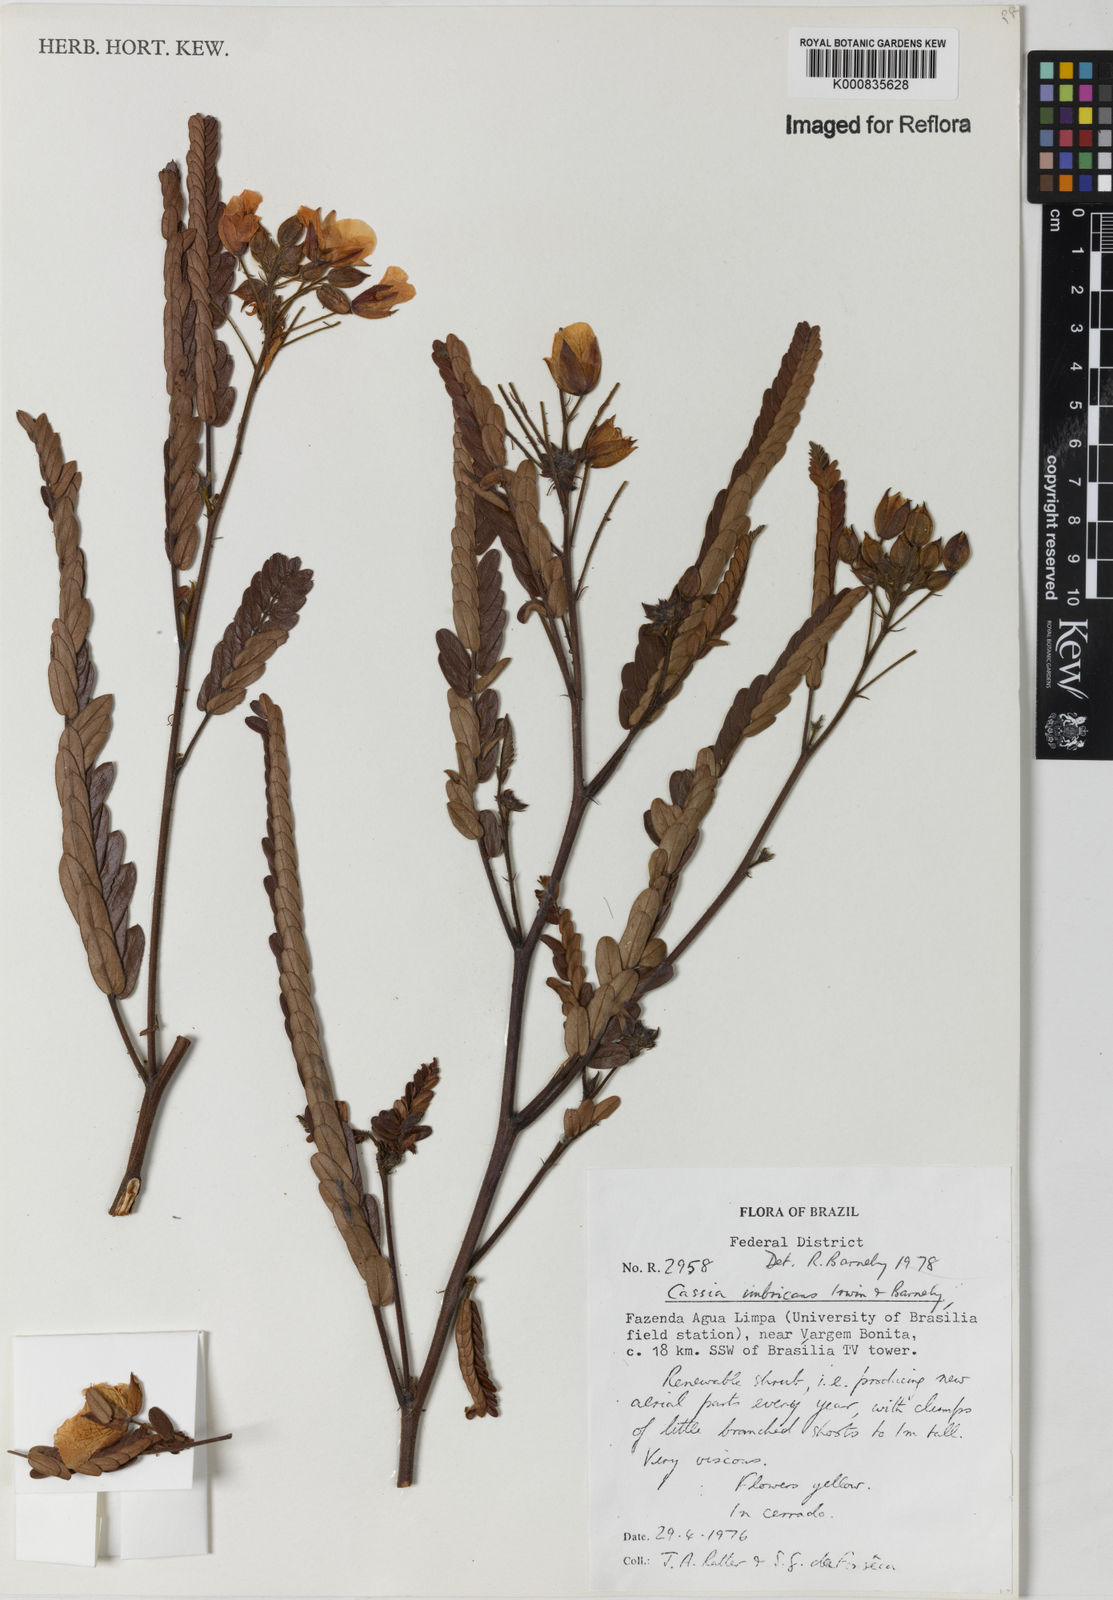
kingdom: Plantae
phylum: Tracheophyta
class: Magnoliopsida
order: Fabales
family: Fabaceae
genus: Chamaecrista
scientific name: Chamaecrista imbricans
